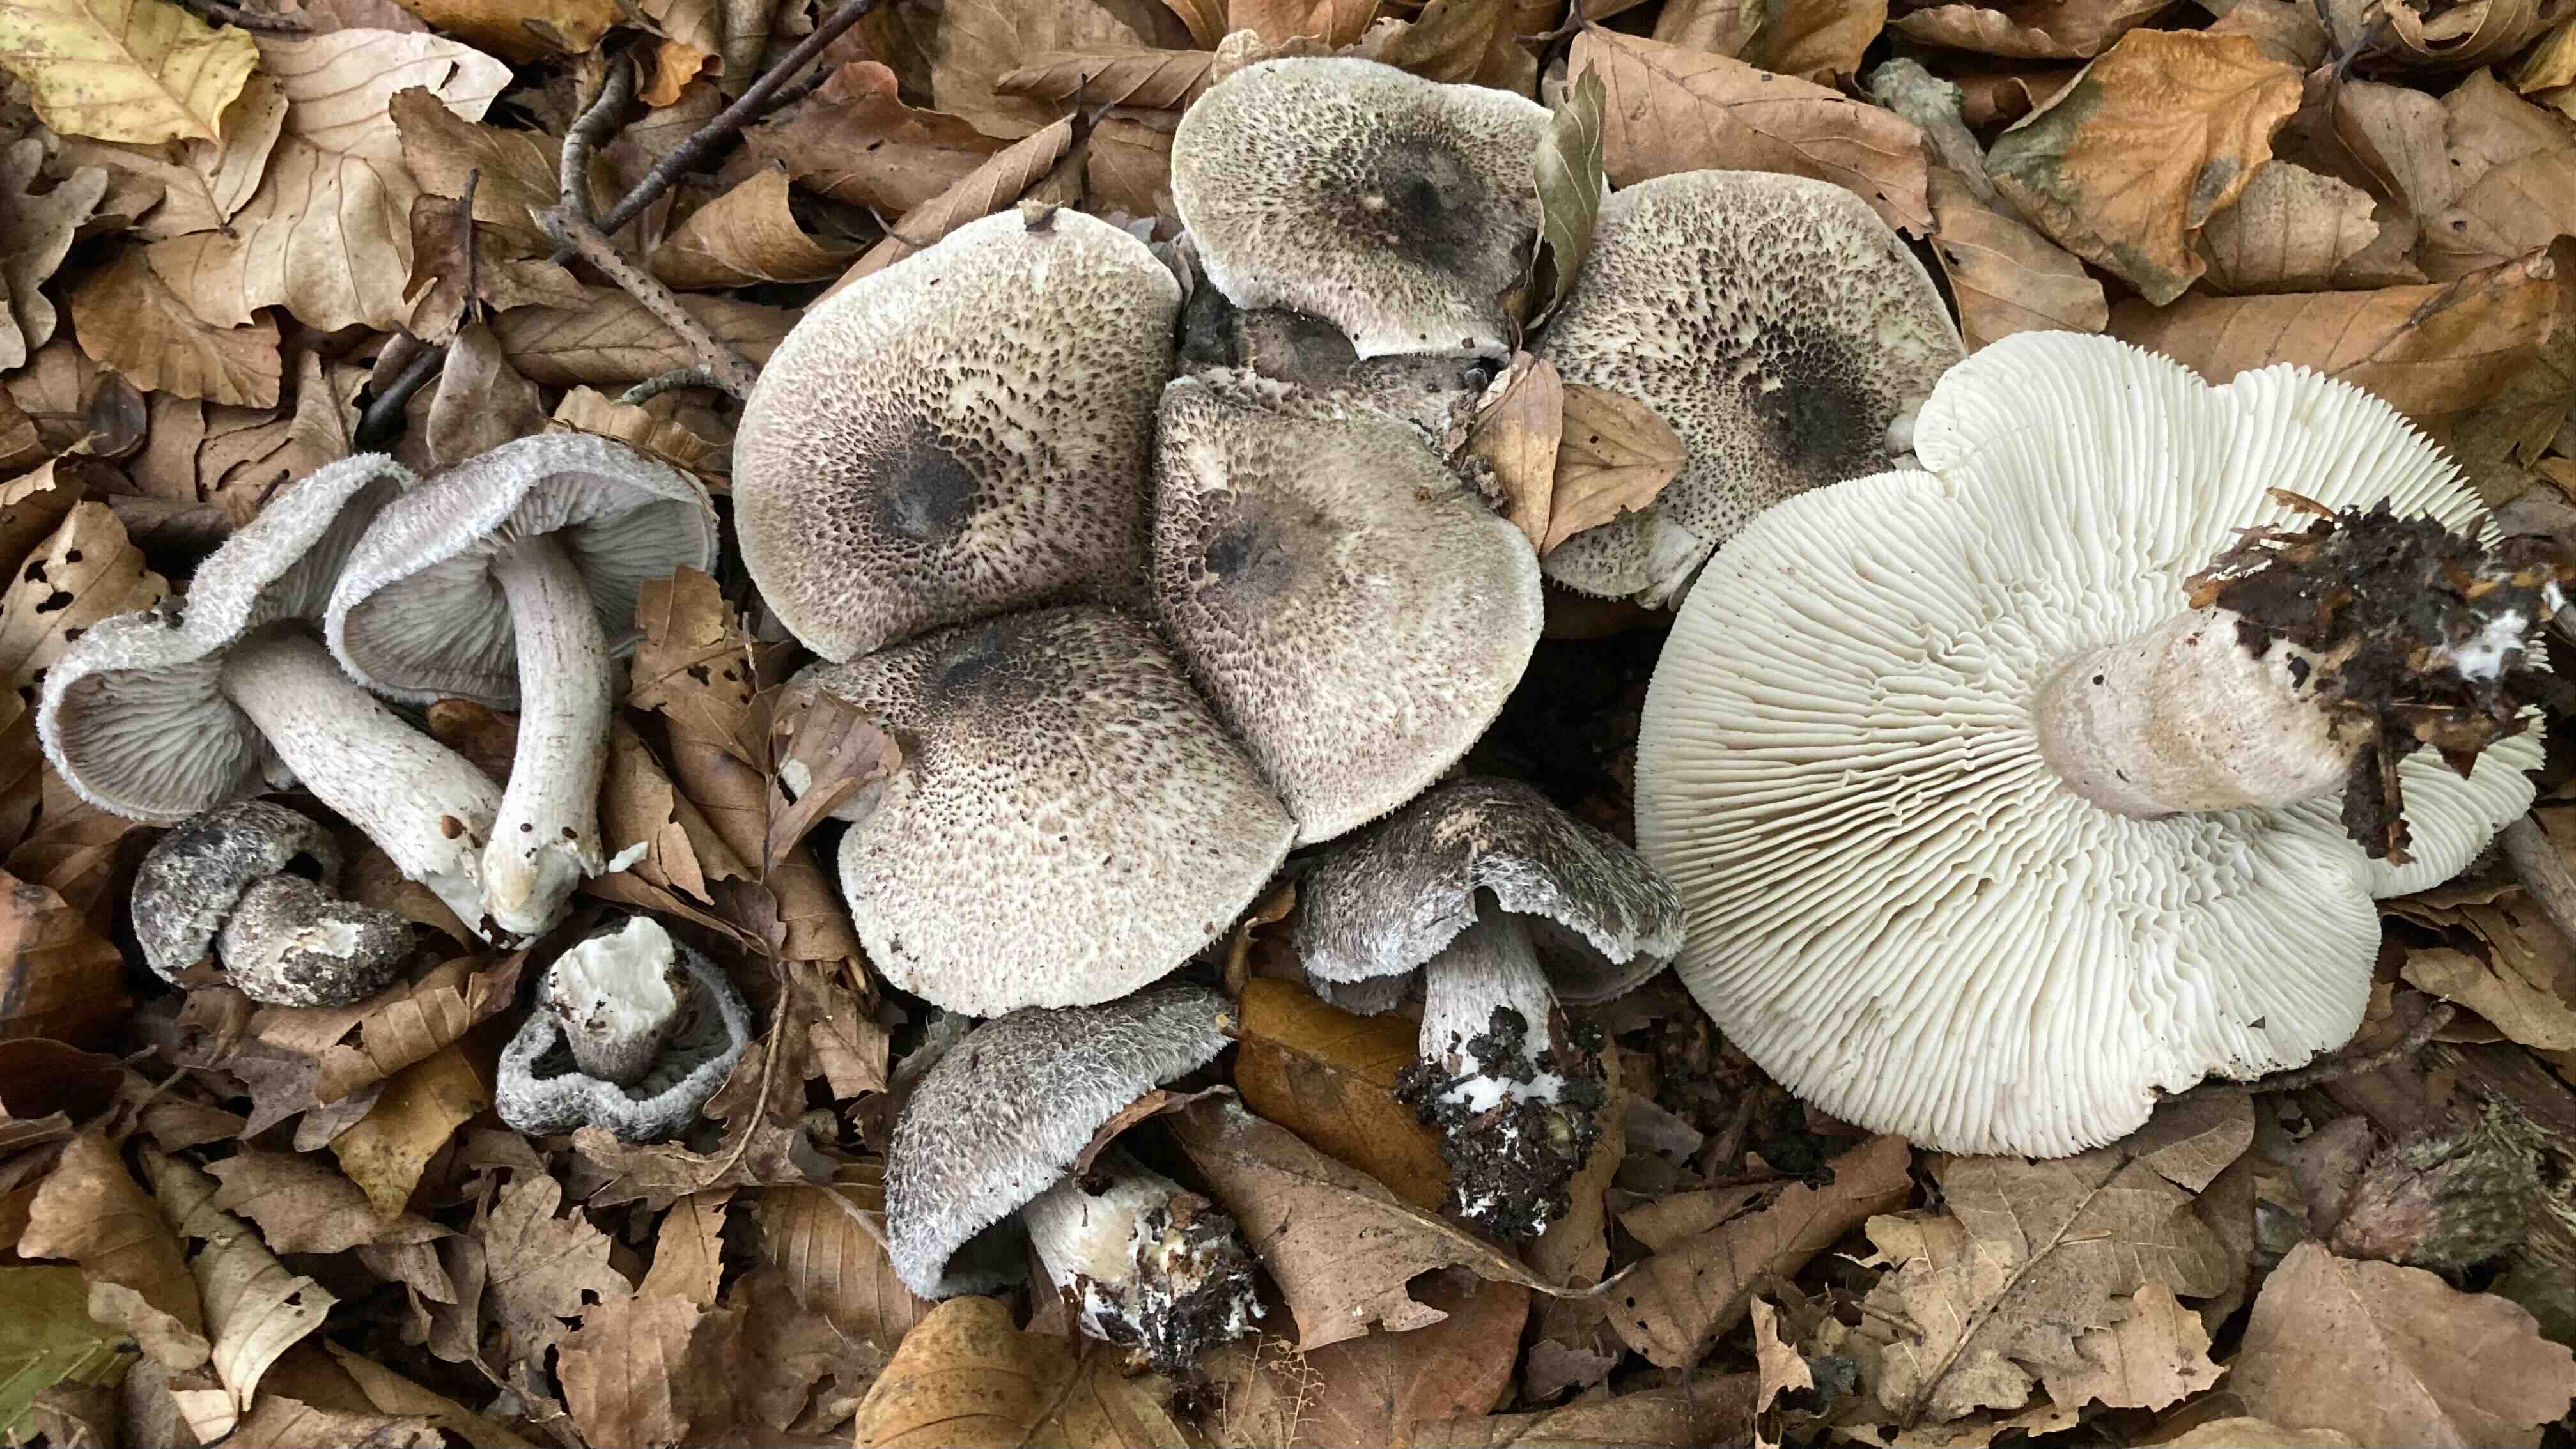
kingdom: Fungi
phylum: Basidiomycota
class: Agaricomycetes
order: Agaricales
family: Tricholomataceae
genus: Tricholoma
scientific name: Tricholoma atrosquamosum
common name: sortskællet ridderhat
